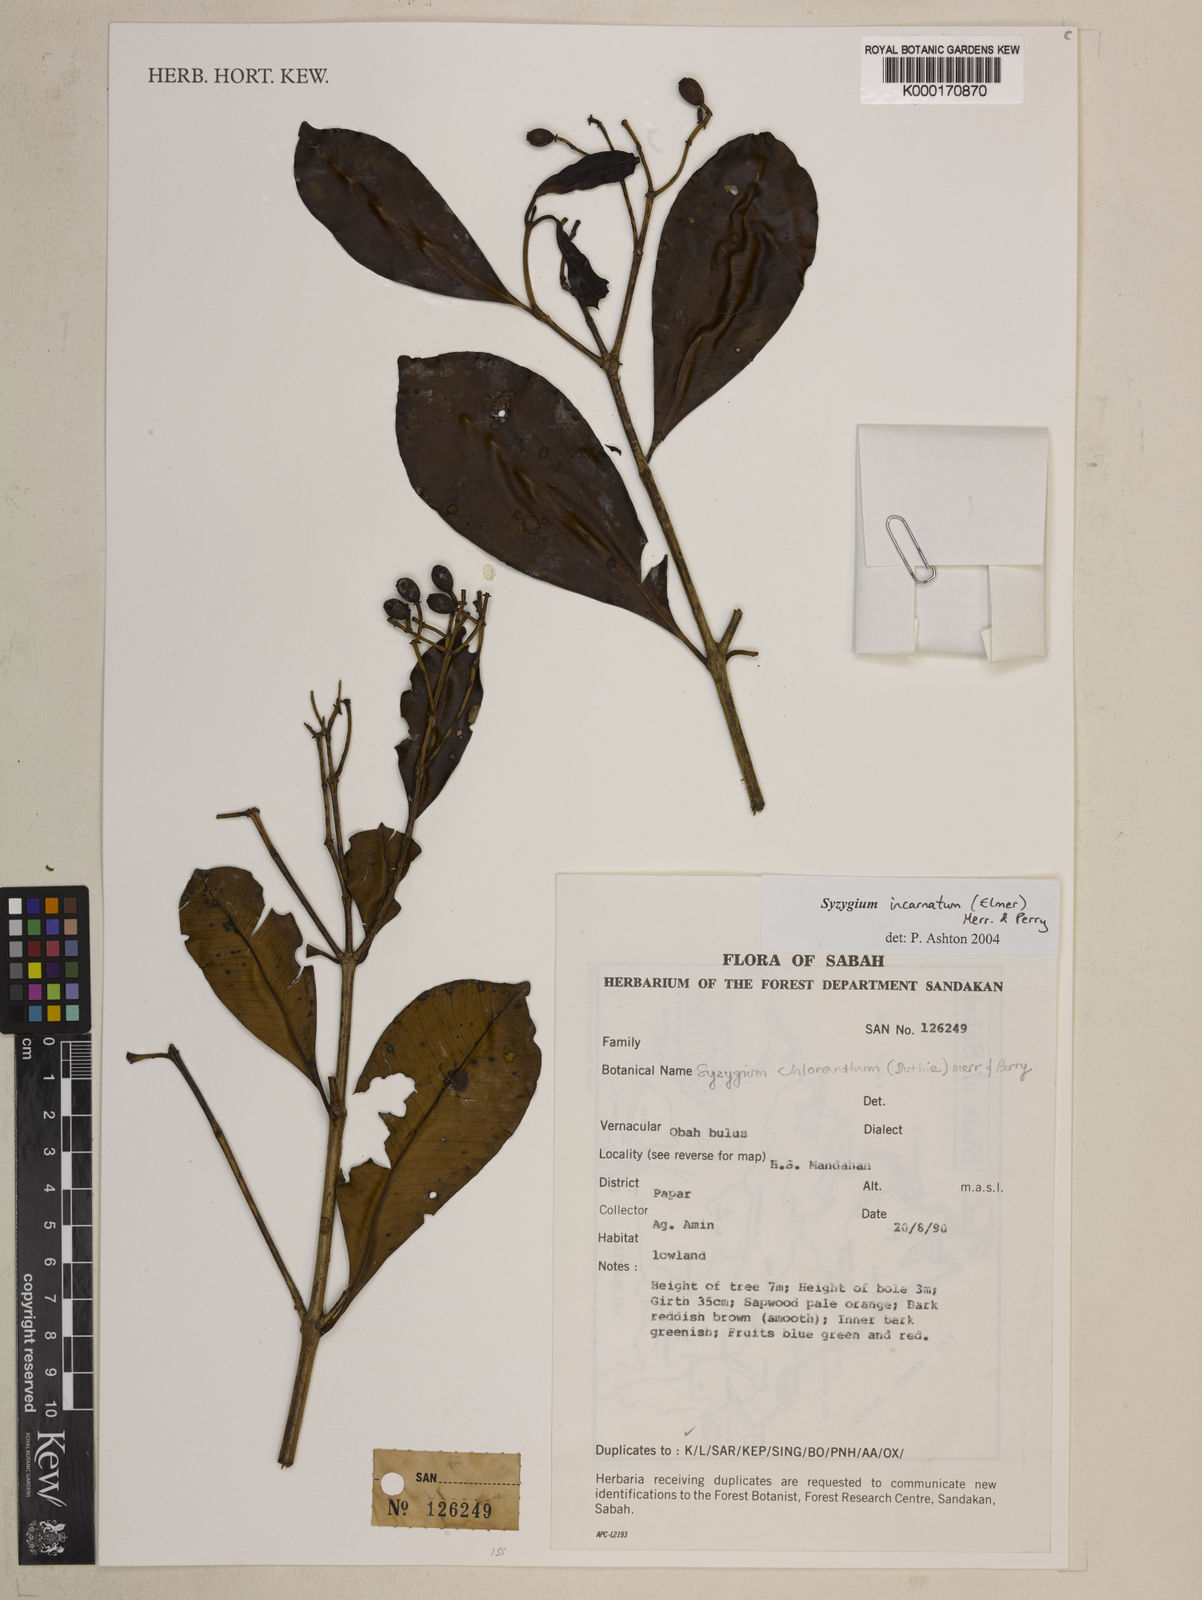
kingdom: Plantae
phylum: Tracheophyta
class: Magnoliopsida
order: Myrtales
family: Myrtaceae
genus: Syzygium
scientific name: Syzygium incarnatum
